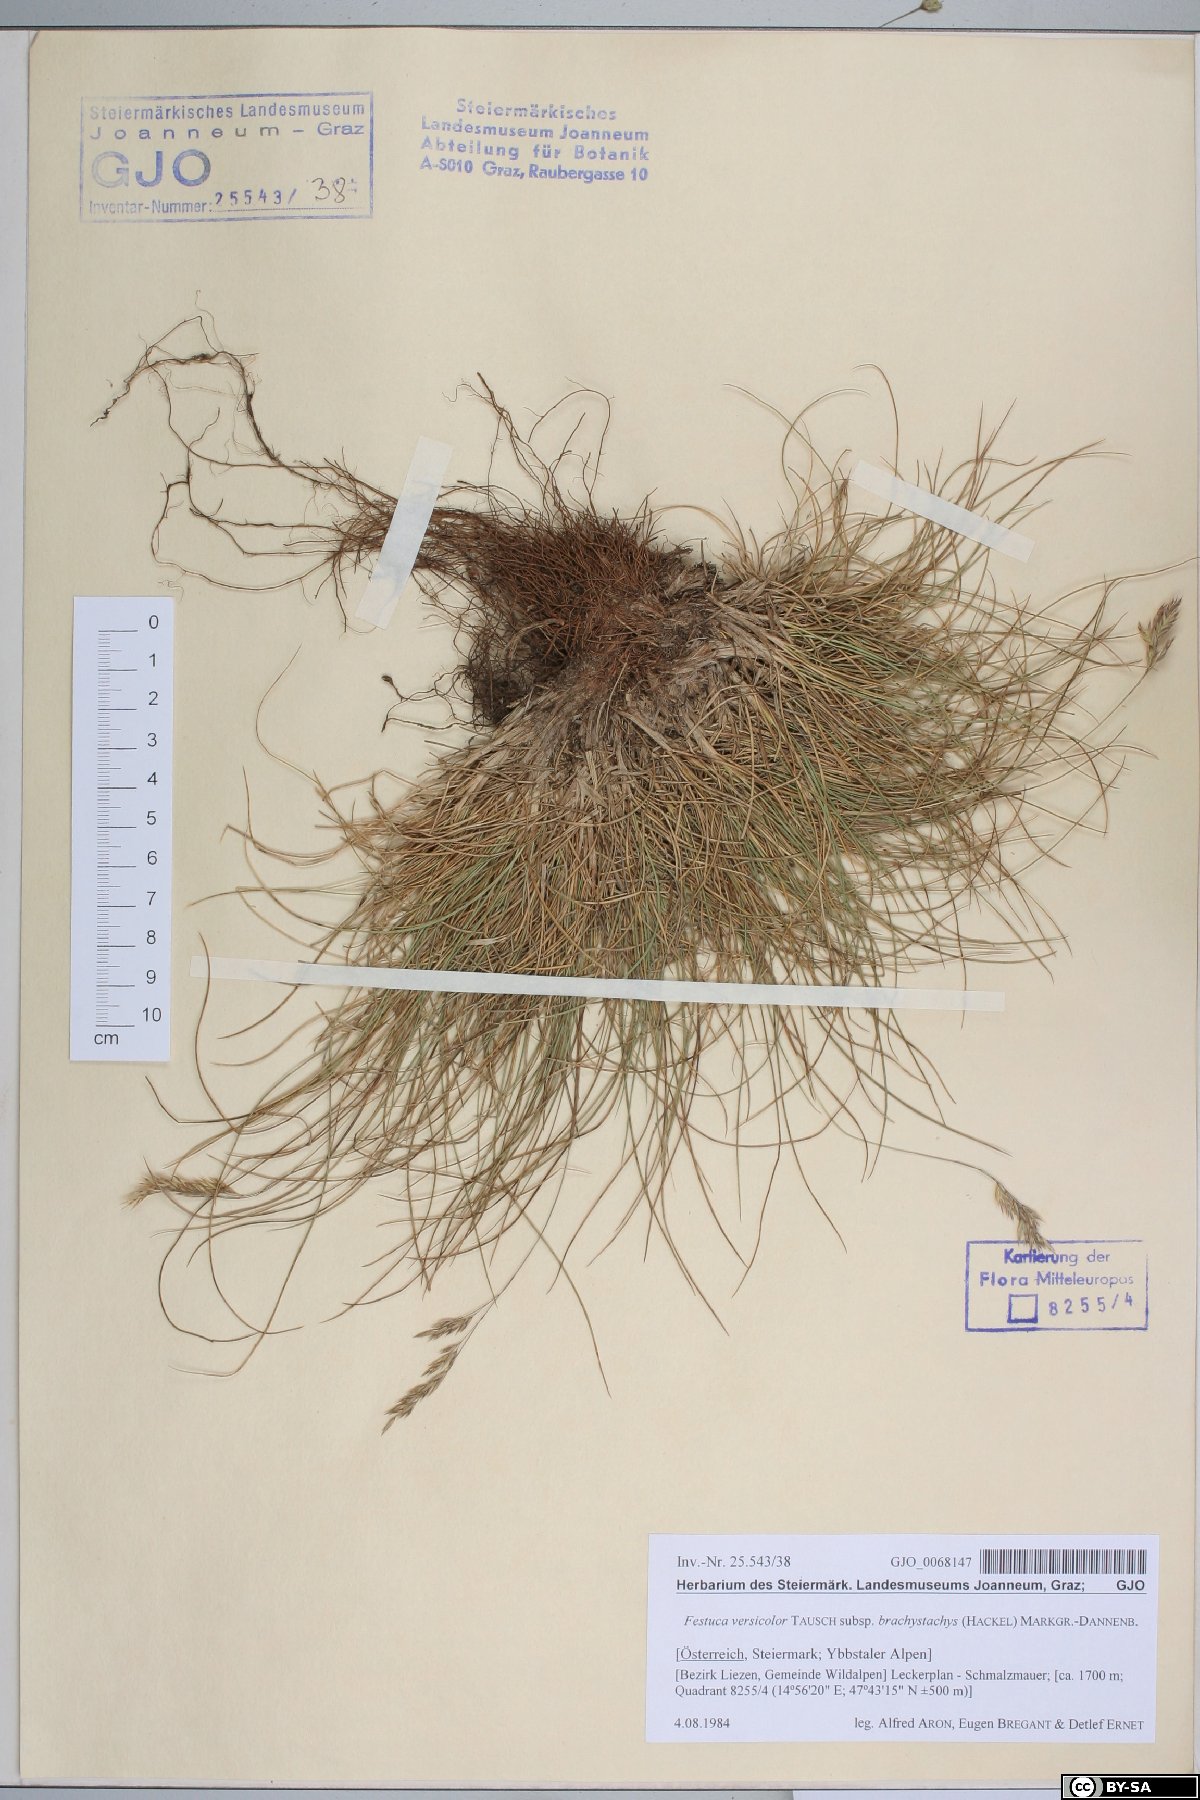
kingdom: Plantae
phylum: Tracheophyta
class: Liliopsida
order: Poales
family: Poaceae
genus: Festuca
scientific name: Festuca varia
